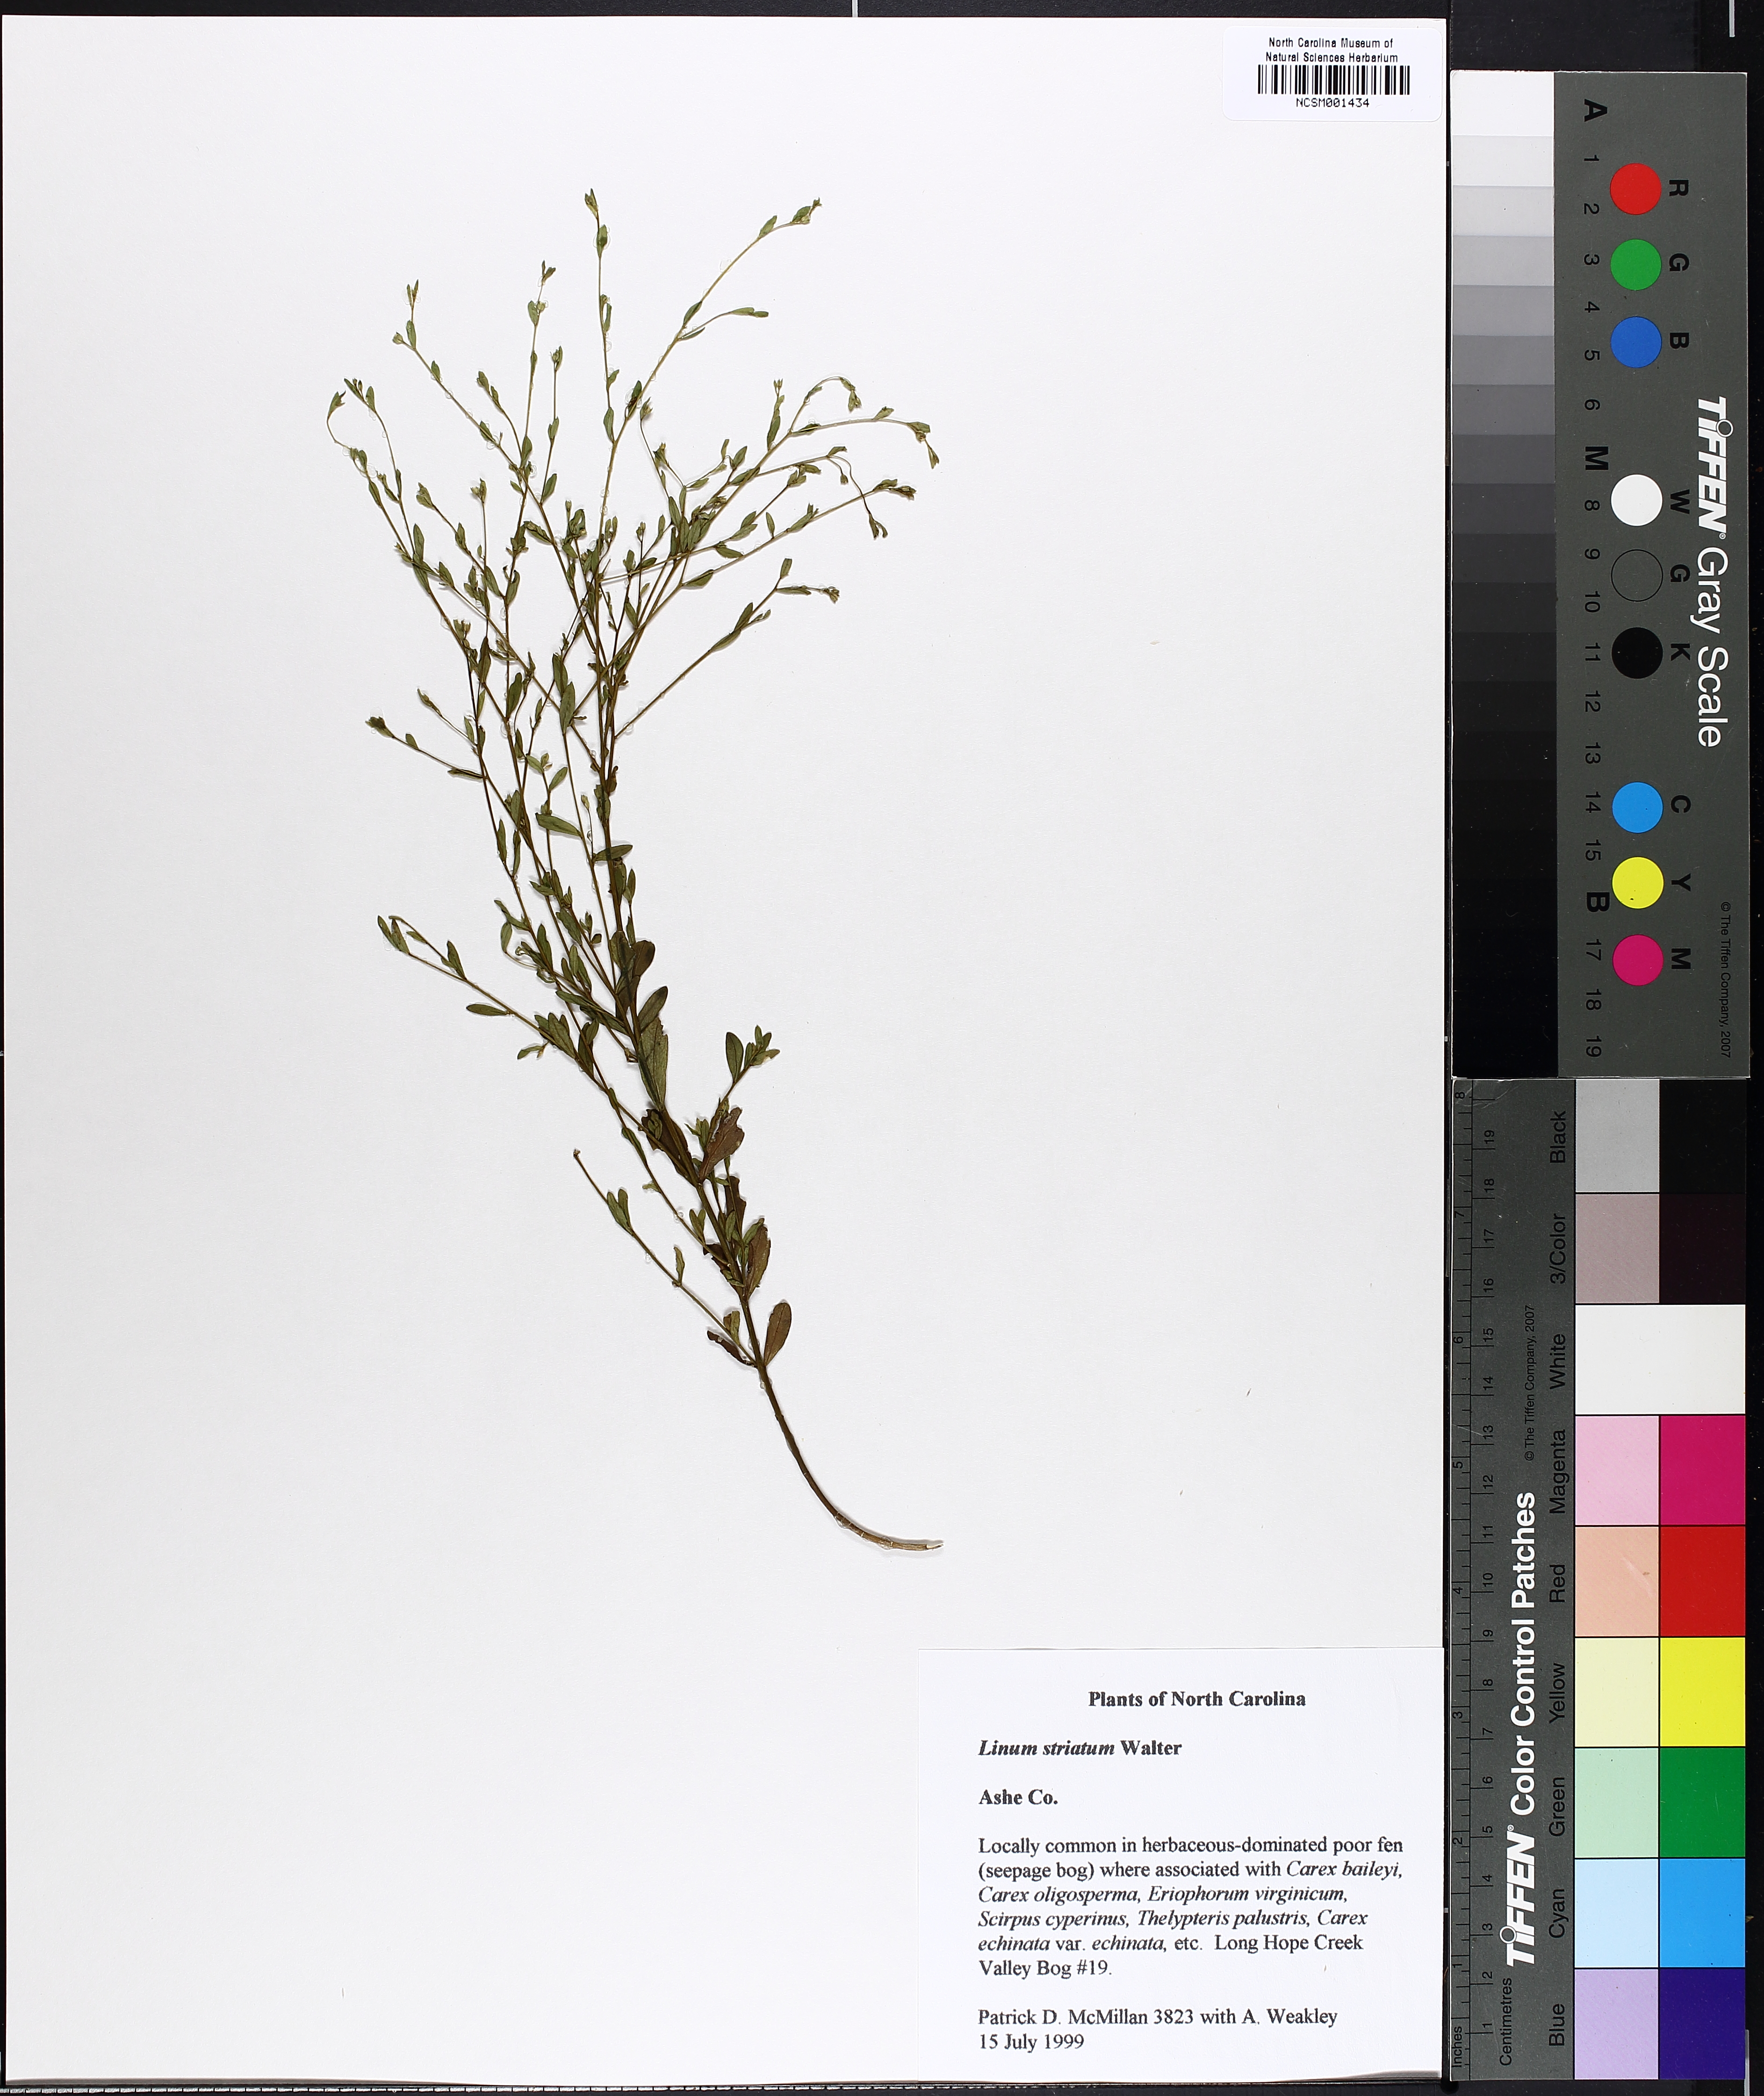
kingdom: Plantae
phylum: Tracheophyta
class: Magnoliopsida
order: Malpighiales
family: Linaceae
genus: Linum
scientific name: Linum striatum
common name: Ridged yellow flax
